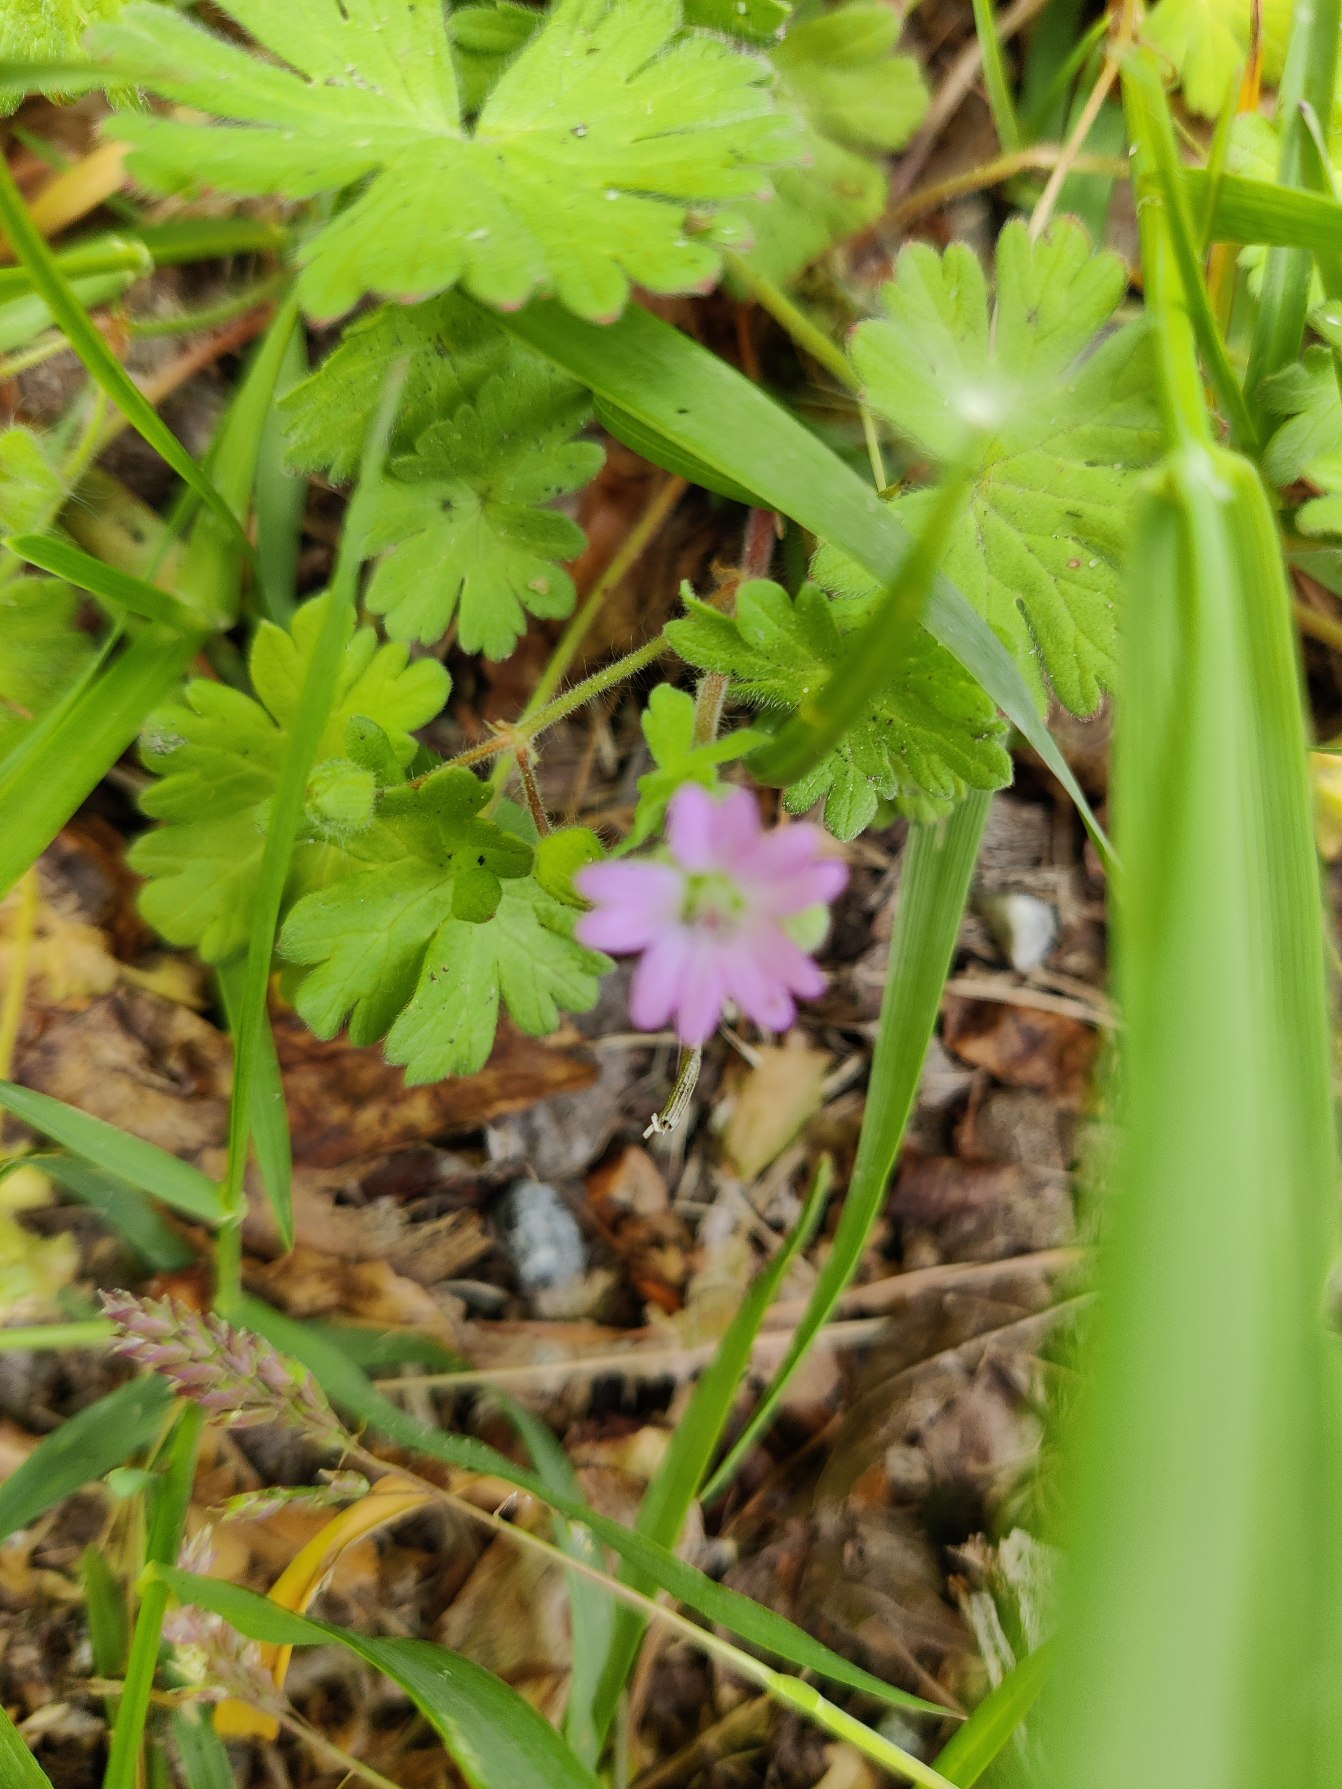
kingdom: Plantae
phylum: Tracheophyta
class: Magnoliopsida
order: Geraniales
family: Geraniaceae
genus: Geranium
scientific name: Geranium molle
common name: Blød storkenæb
